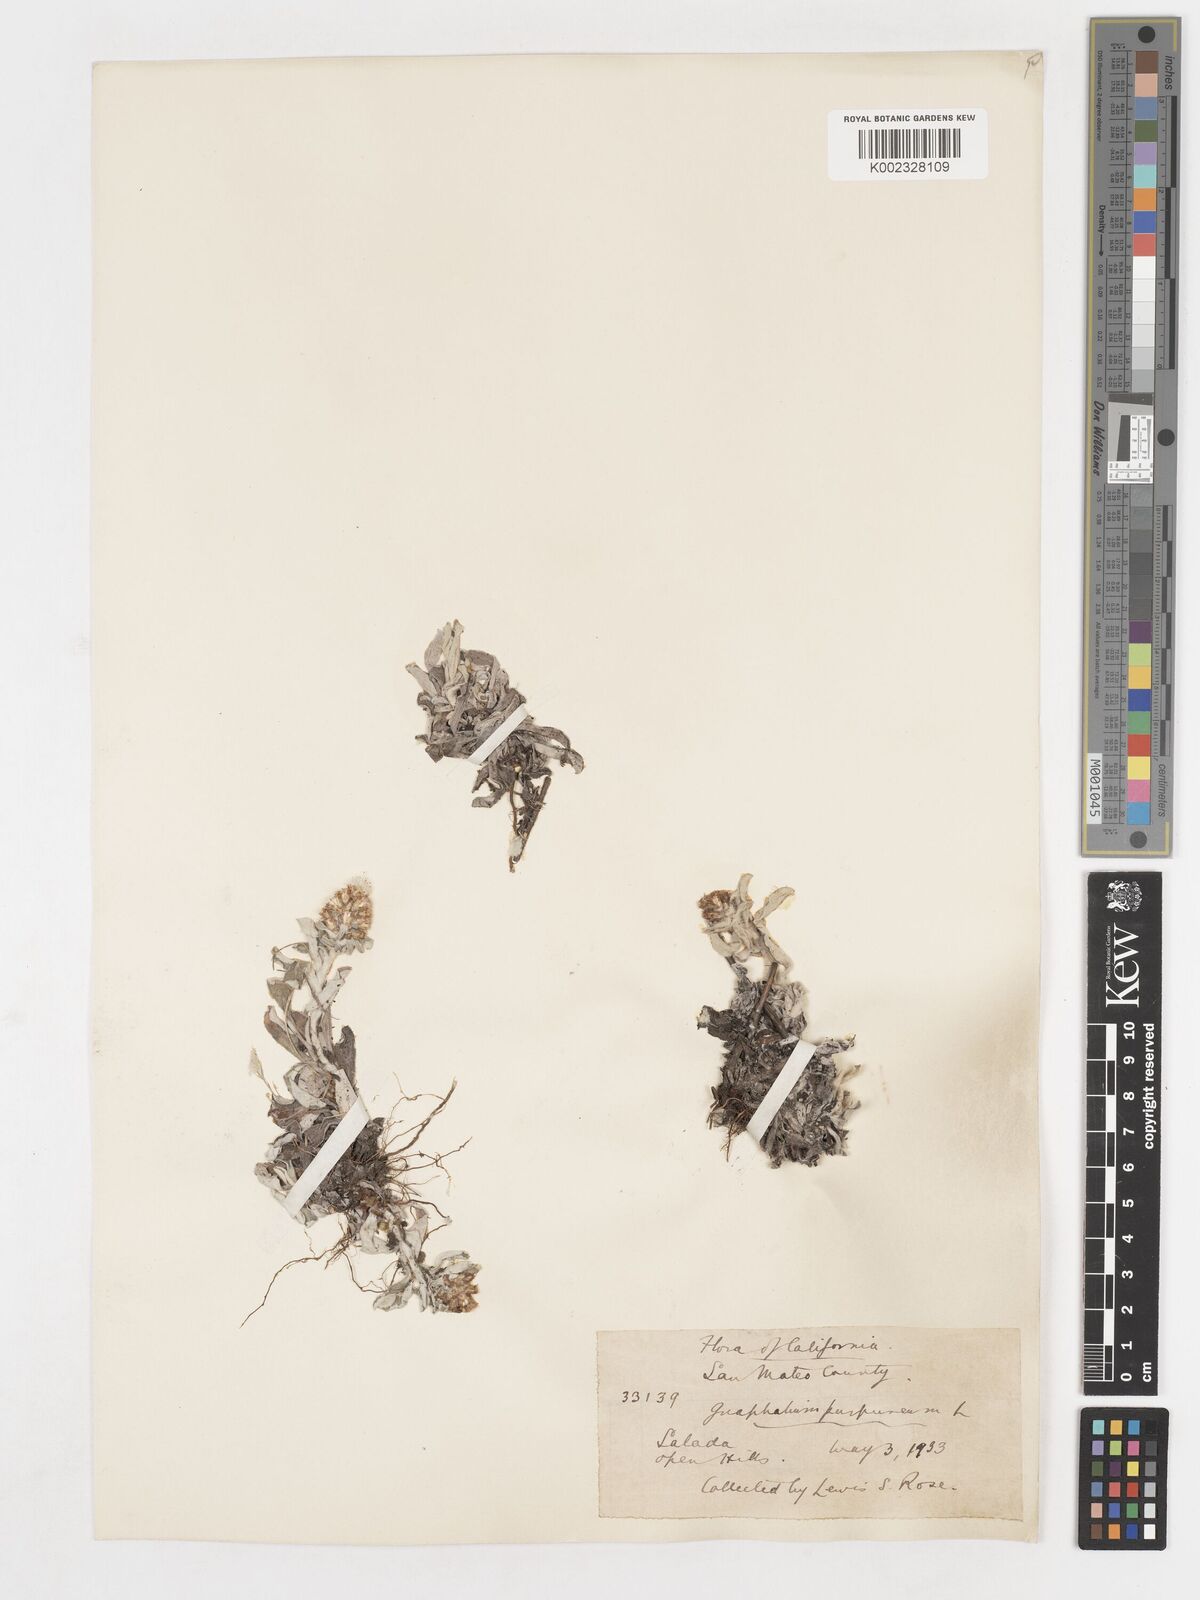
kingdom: Plantae
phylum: Tracheophyta
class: Magnoliopsida
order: Asterales
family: Asteraceae
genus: Gamochaeta
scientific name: Gamochaeta purpurea
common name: Purple cudweed
